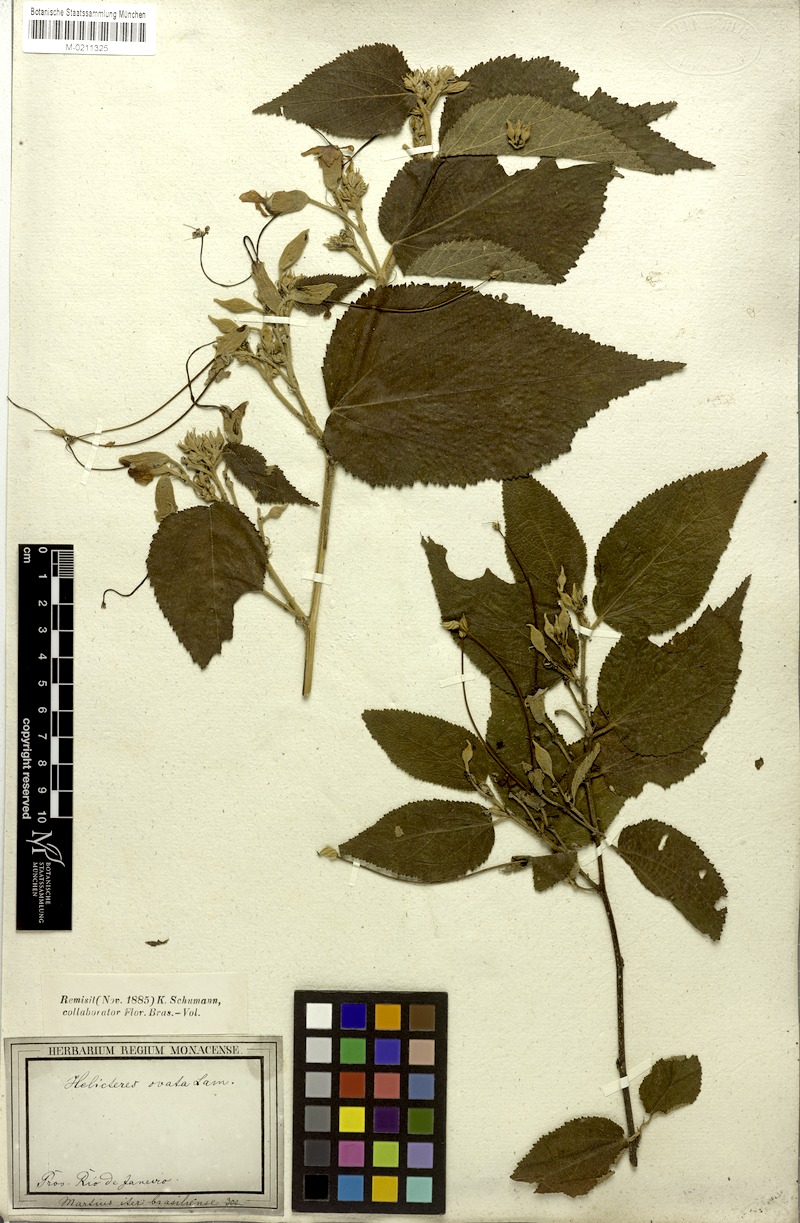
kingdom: Plantae
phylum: Tracheophyta
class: Magnoliopsida
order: Malvales
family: Malvaceae
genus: Helicteres
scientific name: Helicteres ovata
